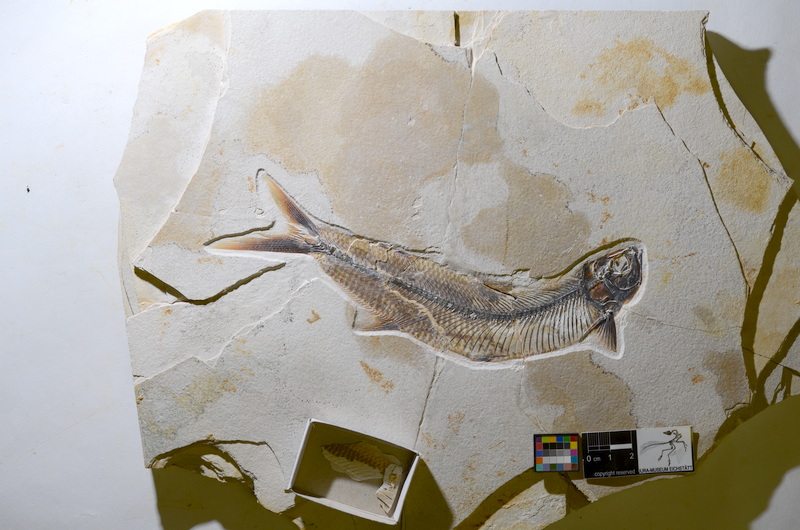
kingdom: Animalia
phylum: Chordata
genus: Thrissops
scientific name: Thrissops formosus
